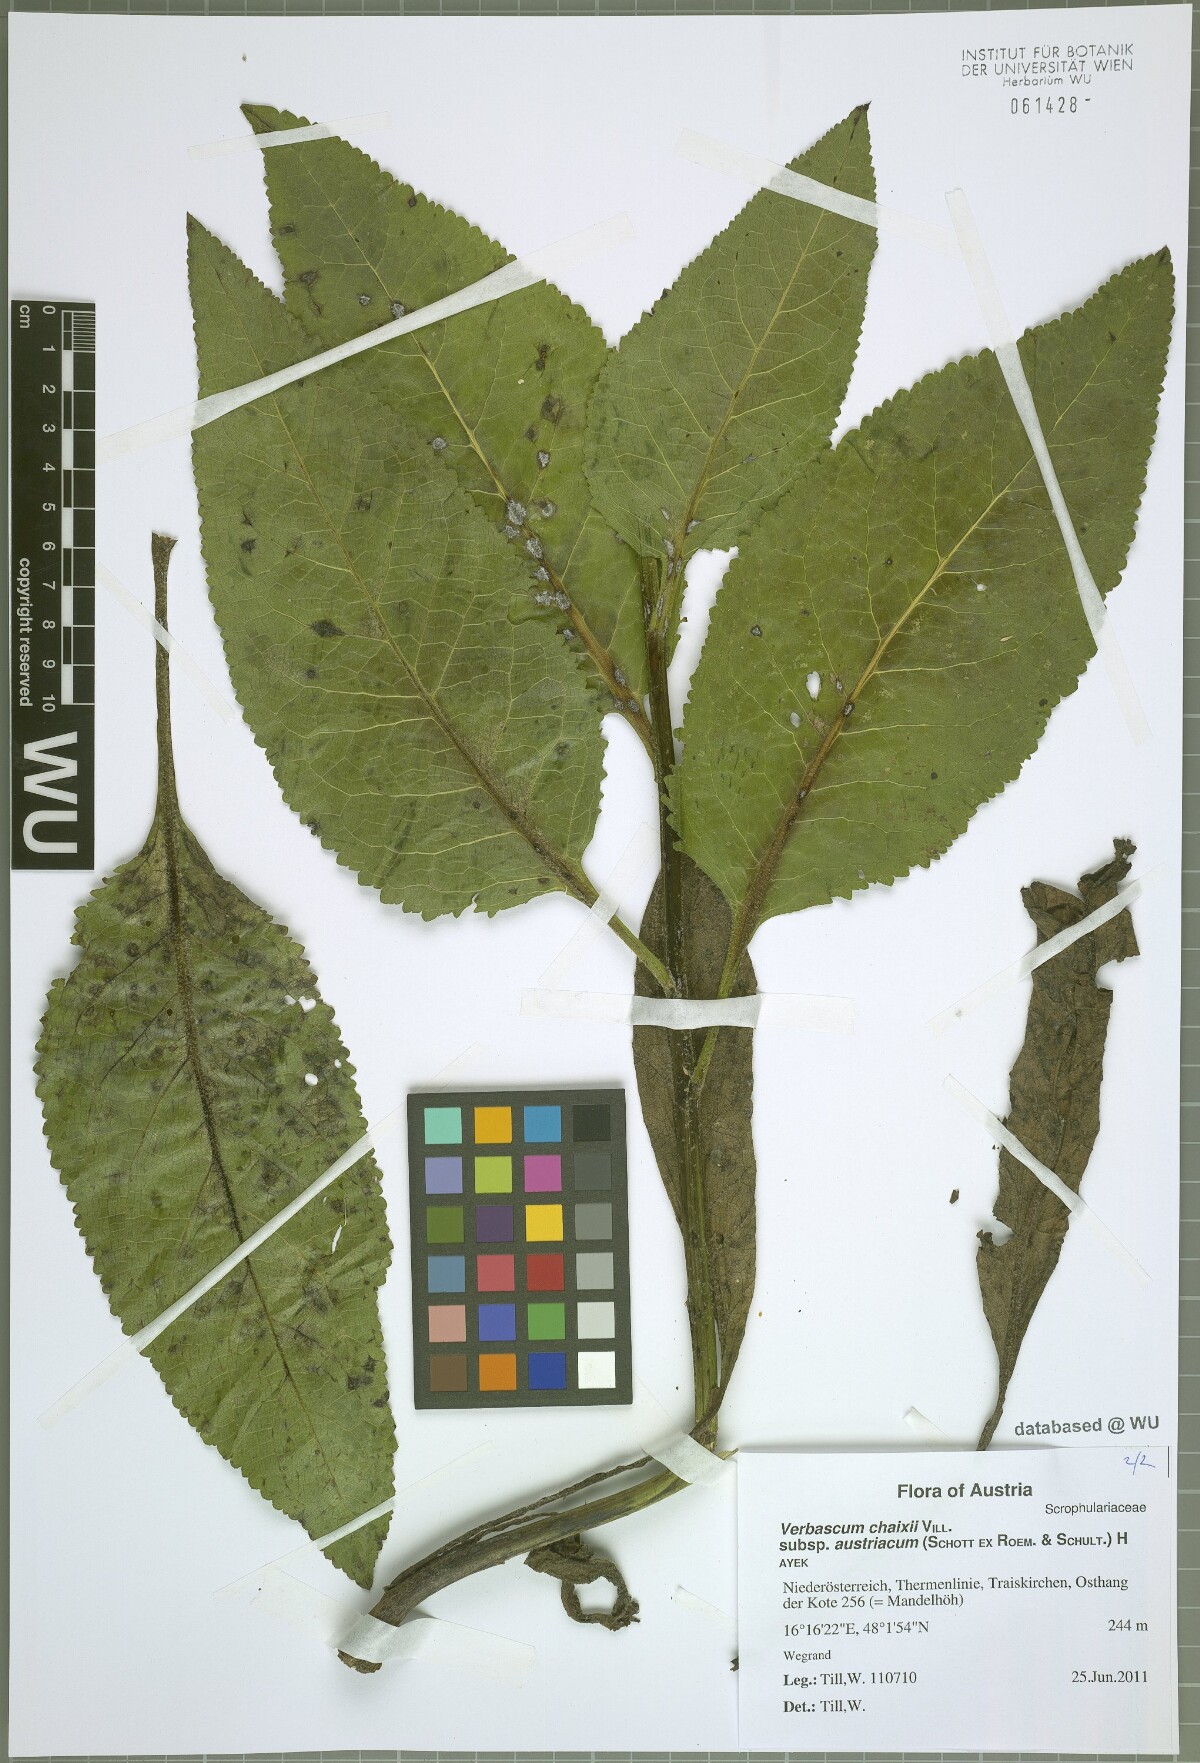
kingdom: Plantae
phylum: Tracheophyta
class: Magnoliopsida
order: Lamiales
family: Scrophulariaceae
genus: Verbascum
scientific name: Verbascum chaixii
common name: Nettle-leaved mullein
